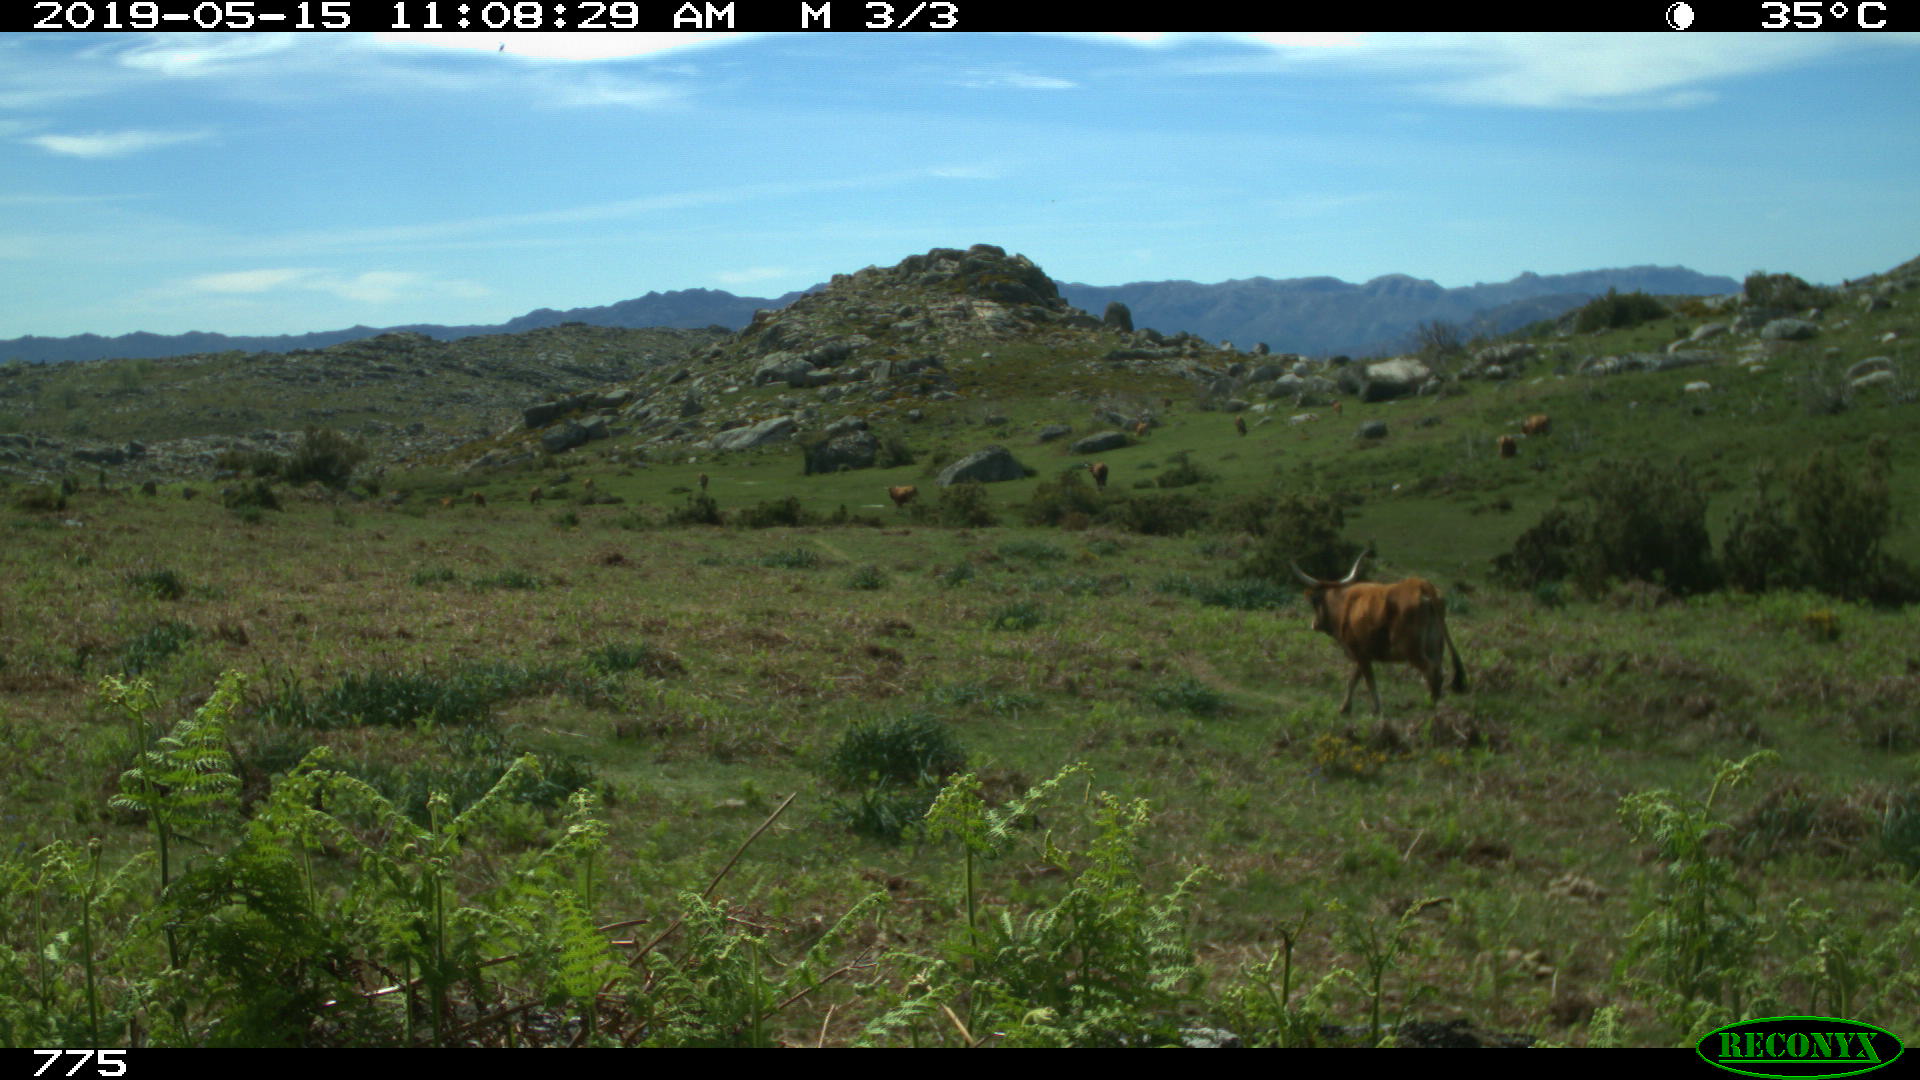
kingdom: Animalia
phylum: Chordata
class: Mammalia
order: Artiodactyla
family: Bovidae
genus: Bos
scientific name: Bos taurus
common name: Domesticated cattle
